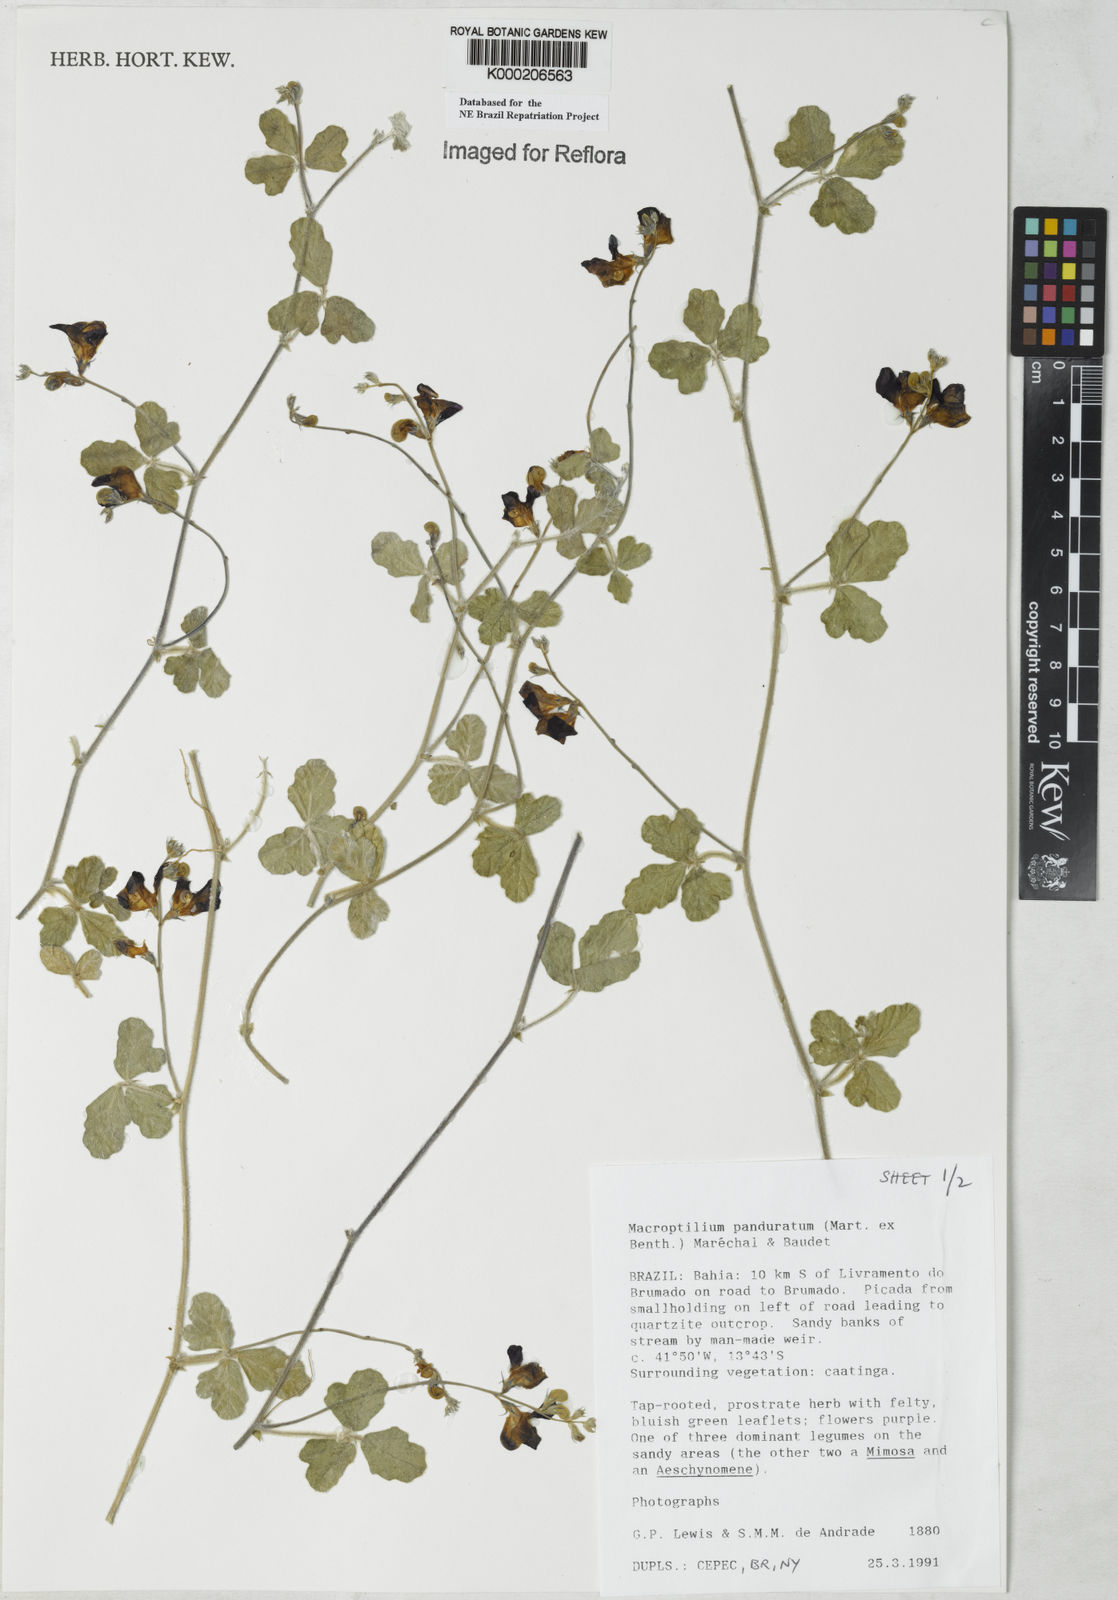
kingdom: Plantae
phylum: Tracheophyta
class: Magnoliopsida
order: Fabales
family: Fabaceae
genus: Macroptilium
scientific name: Macroptilium
